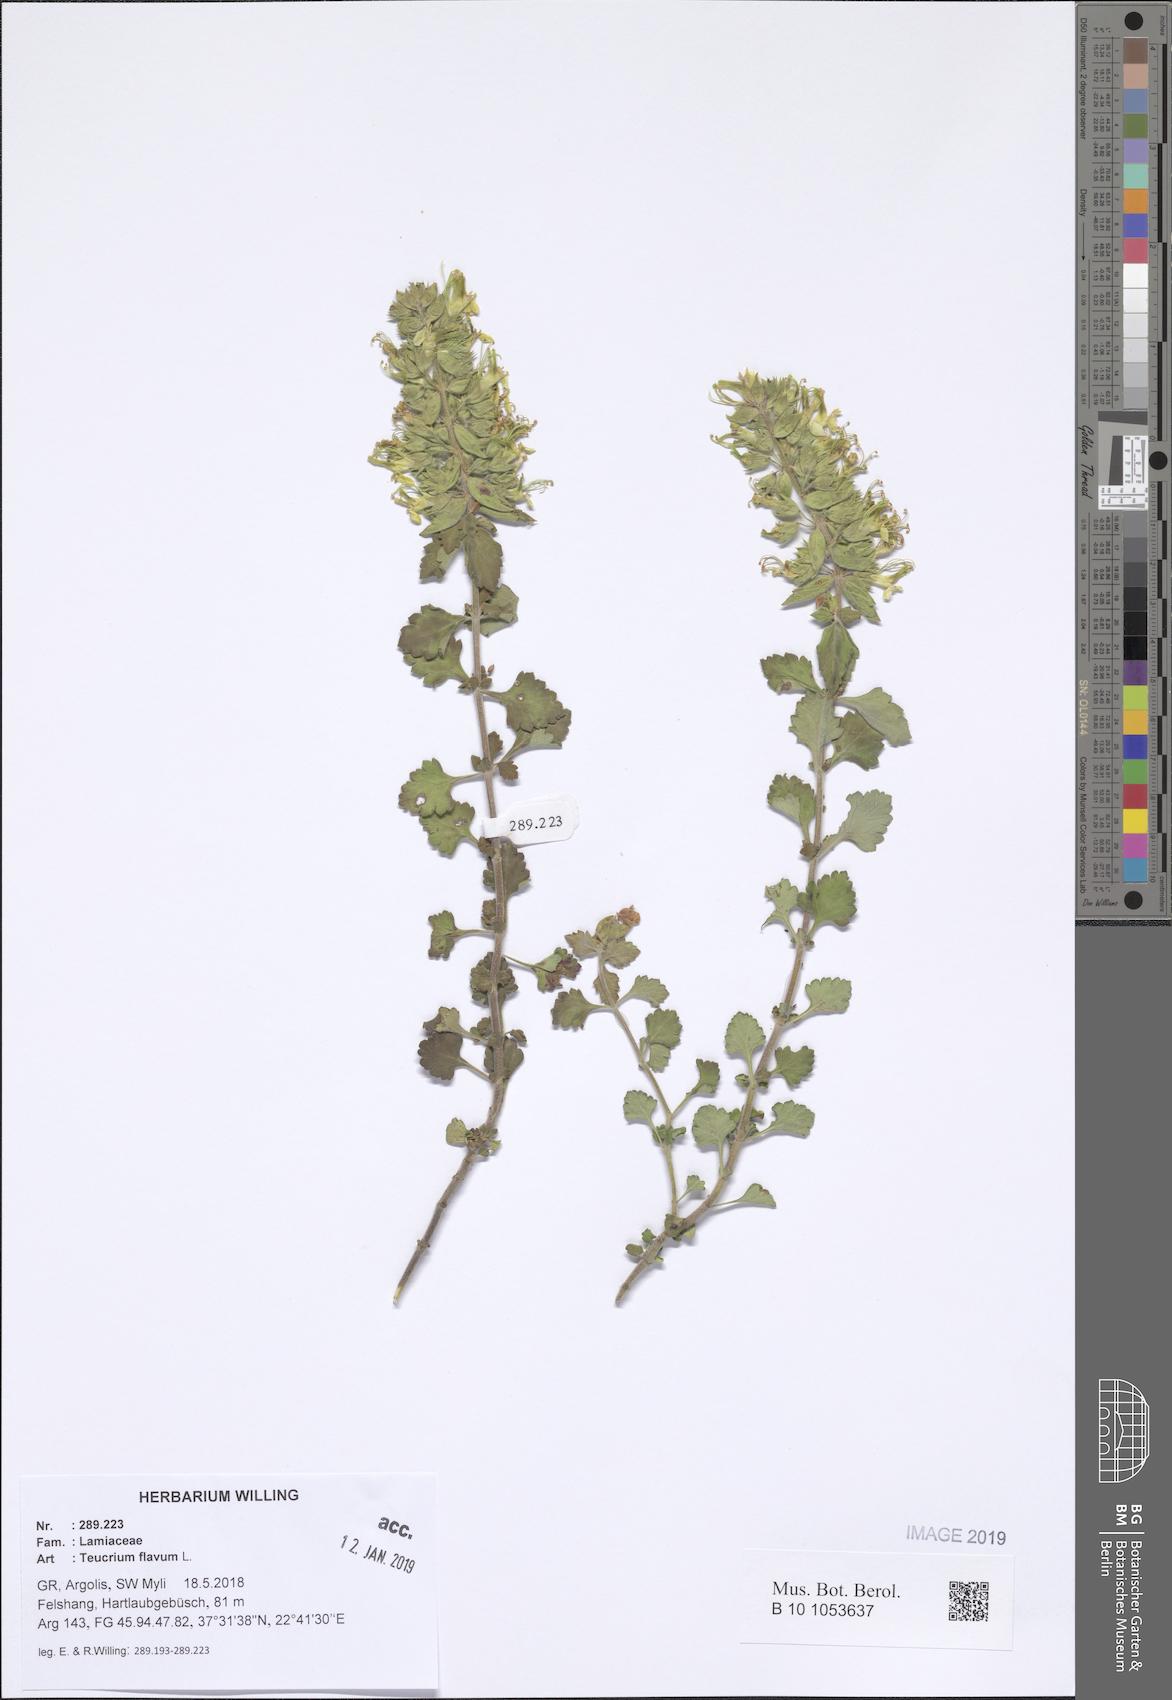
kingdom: Plantae
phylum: Tracheophyta
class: Magnoliopsida
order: Lamiales
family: Lamiaceae
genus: Teucrium
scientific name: Teucrium flavum
